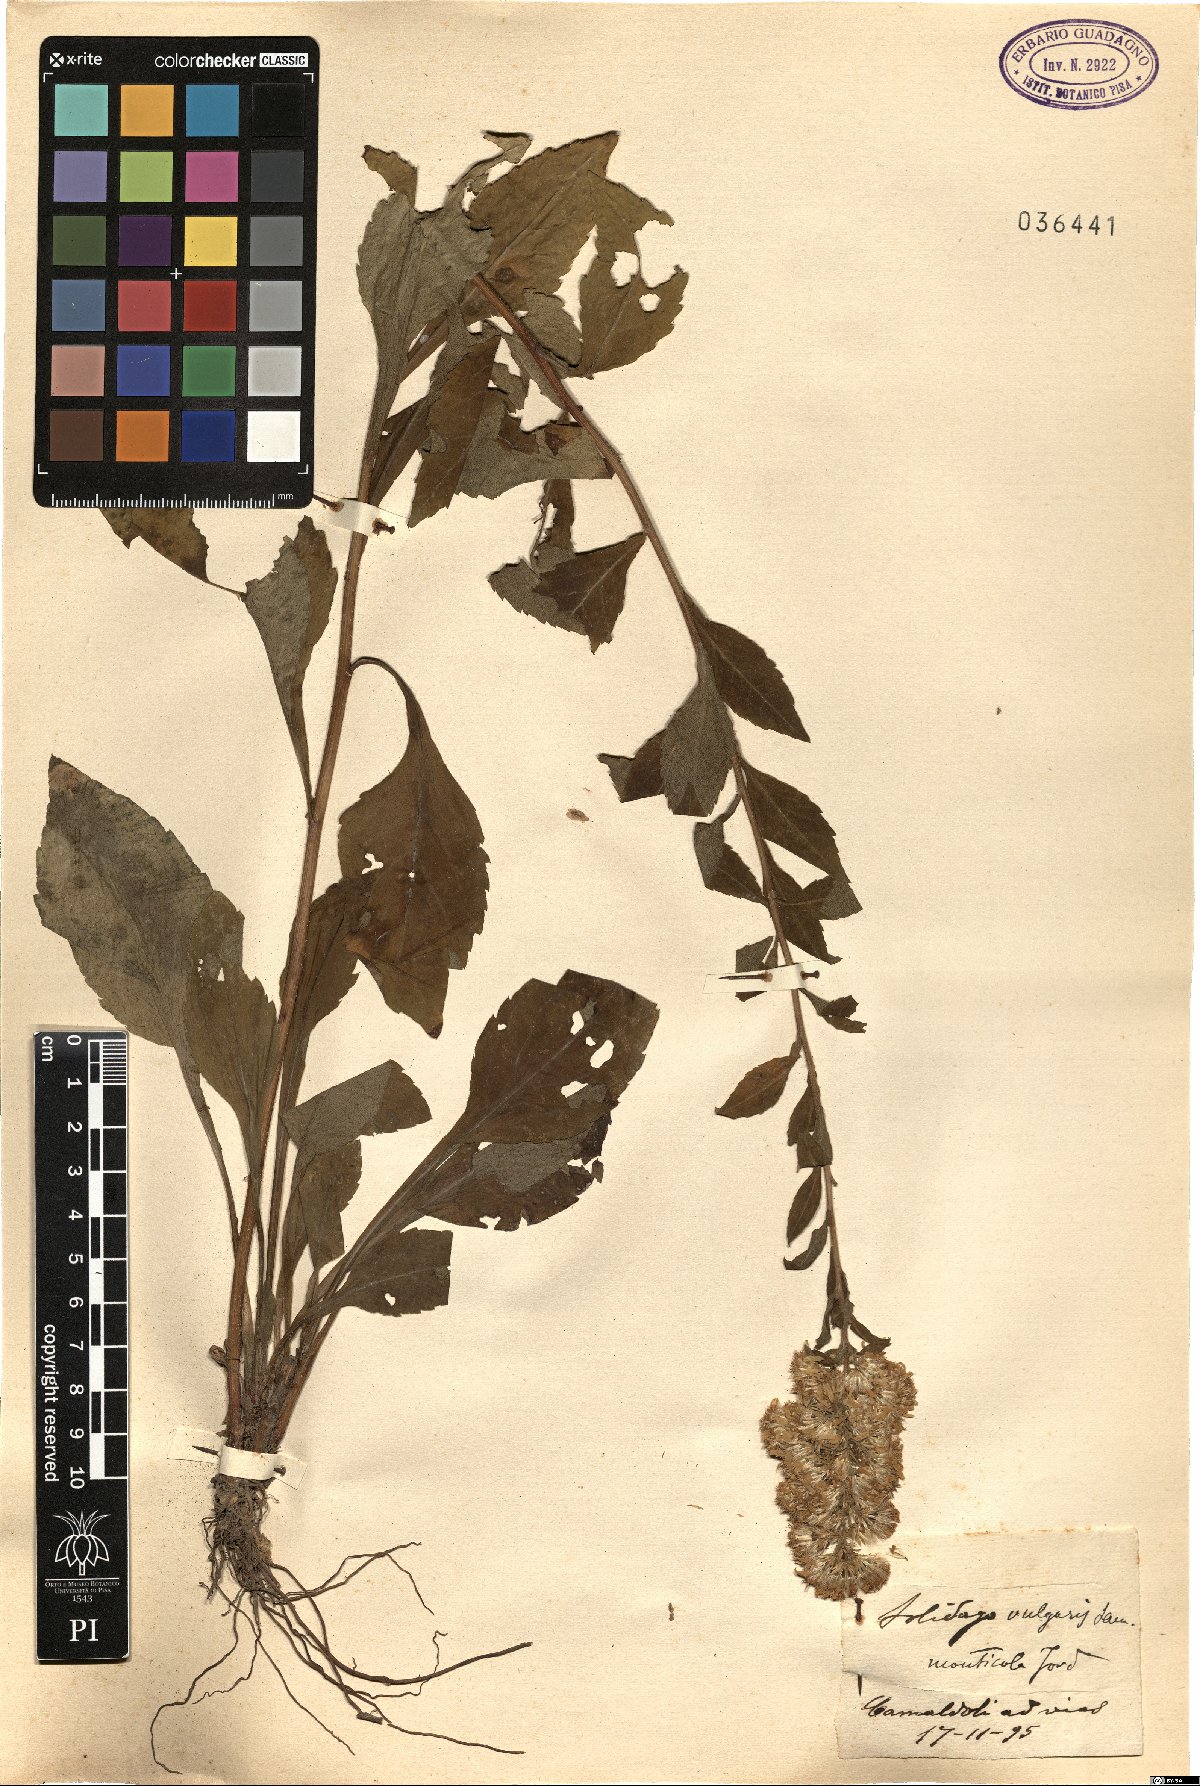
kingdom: Plantae
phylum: Tracheophyta
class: Magnoliopsida
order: Asterales
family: Asteraceae
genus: Solidago
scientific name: Solidago virgaurea
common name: Goldenrod
